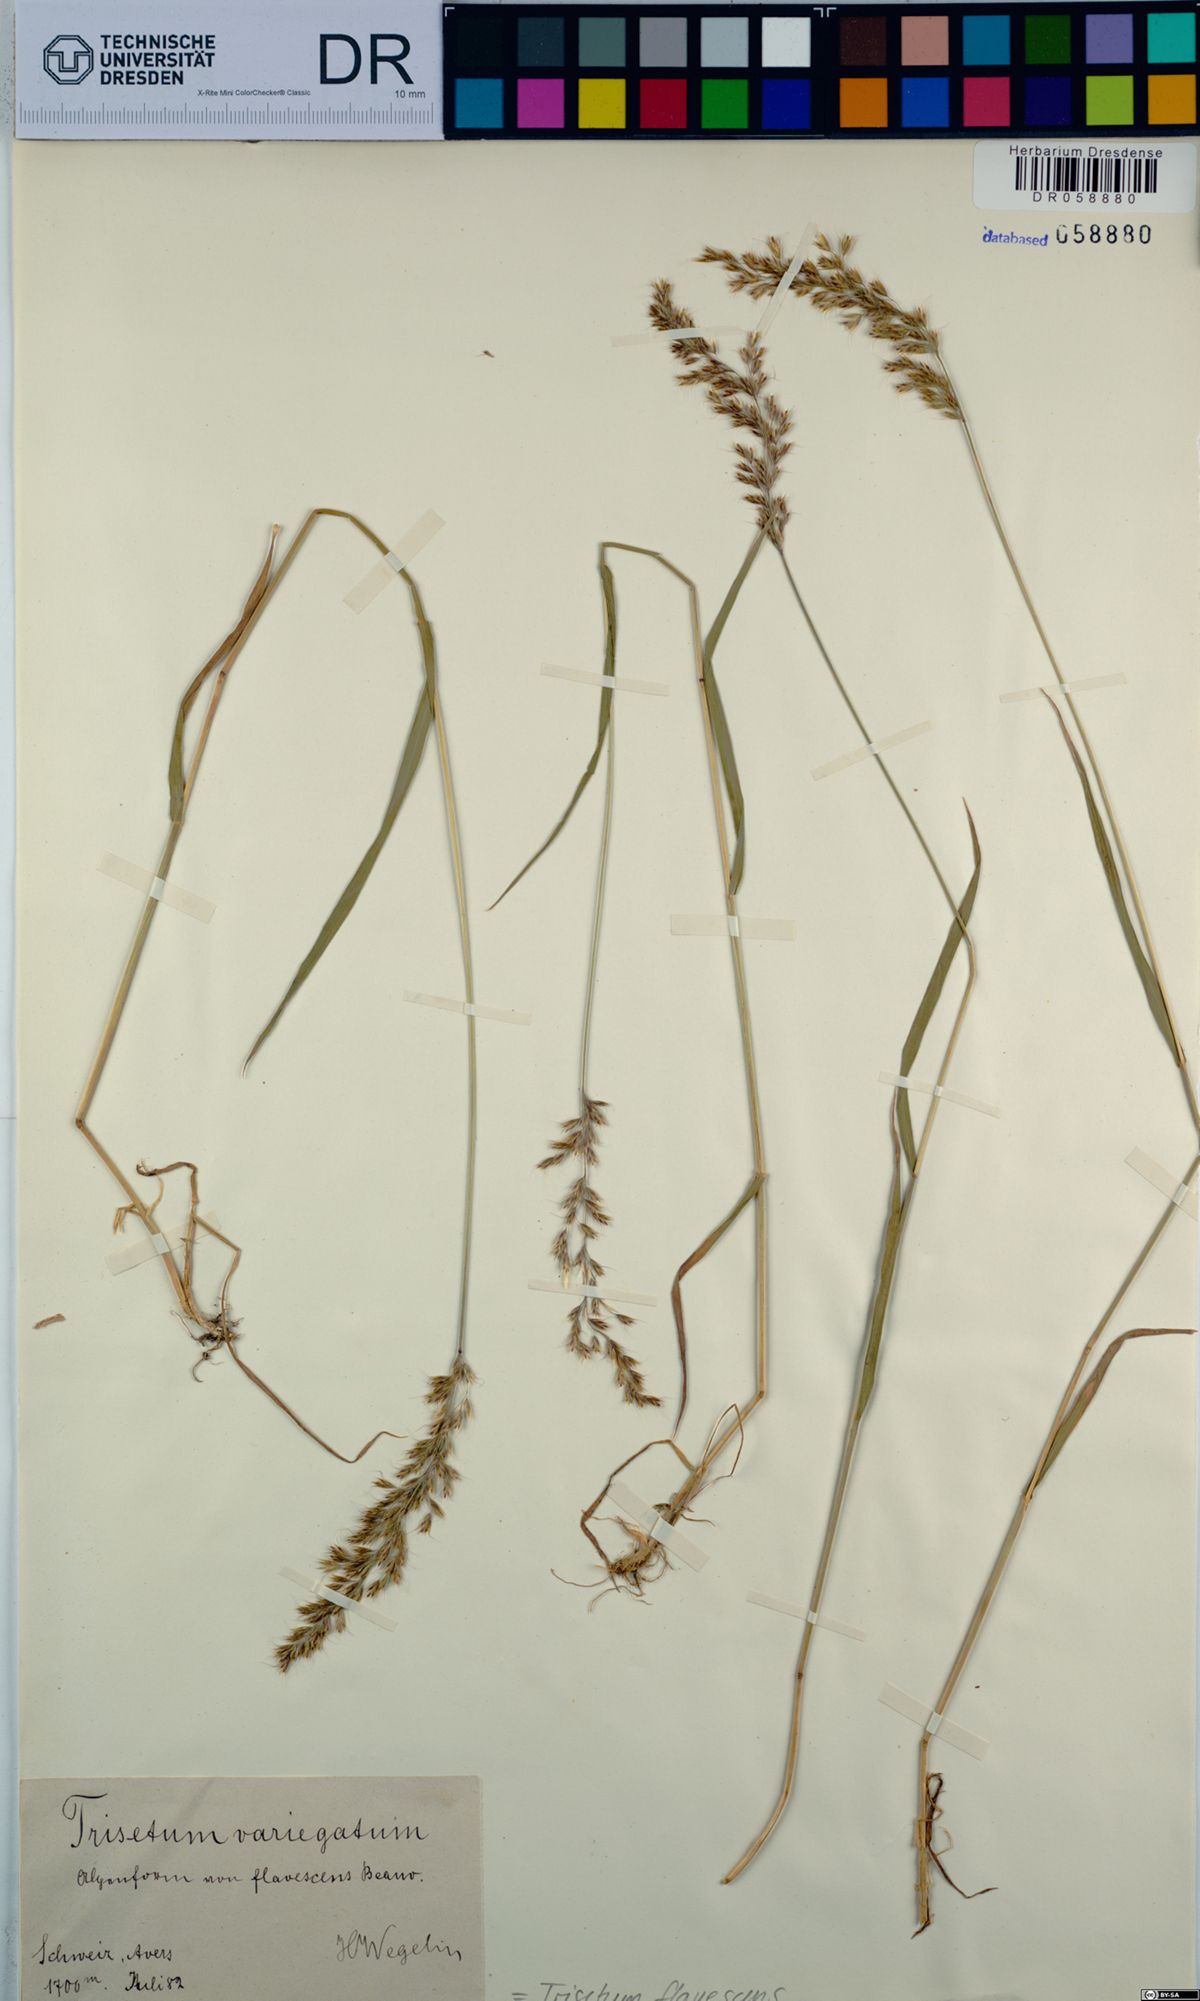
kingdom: Plantae
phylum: Tracheophyta
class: Liliopsida
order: Poales
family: Poaceae
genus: Trisetum
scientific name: Trisetum flavescens
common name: Yellow oat-grass
